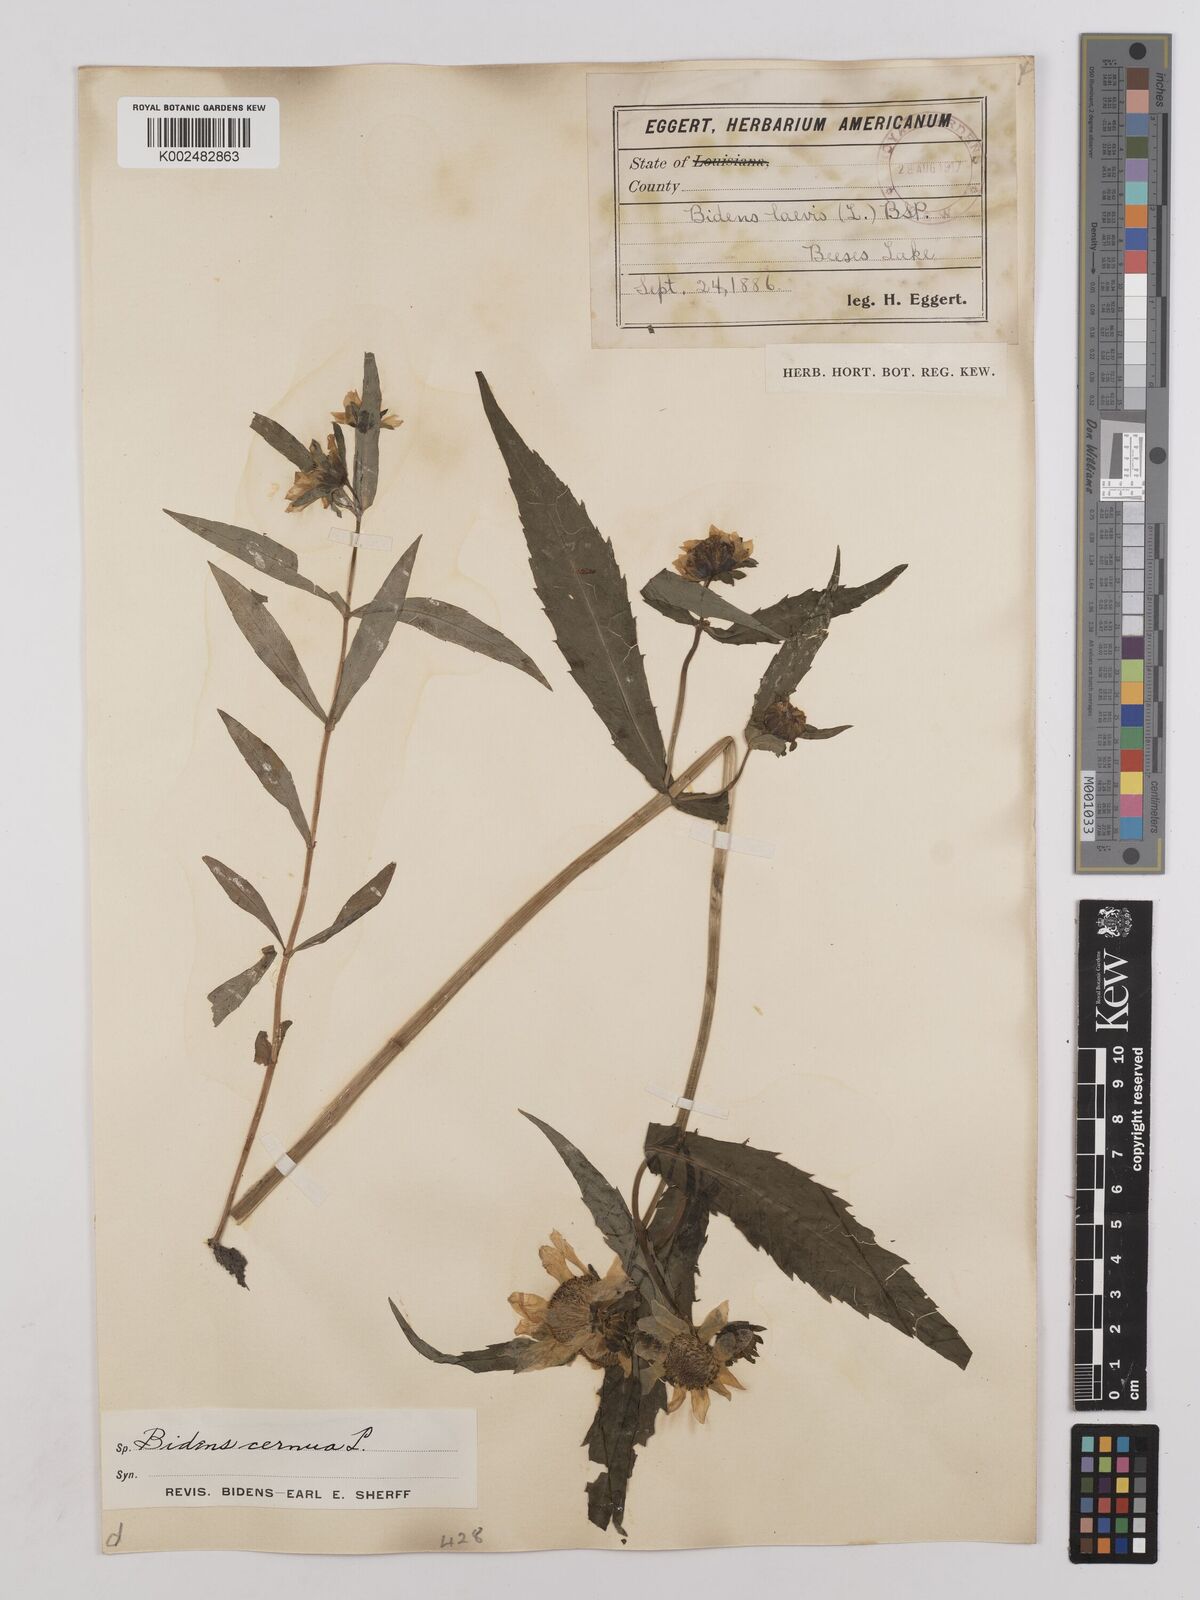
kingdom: Plantae
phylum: Tracheophyta
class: Magnoliopsida
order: Asterales
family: Asteraceae
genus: Bidens
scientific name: Bidens
